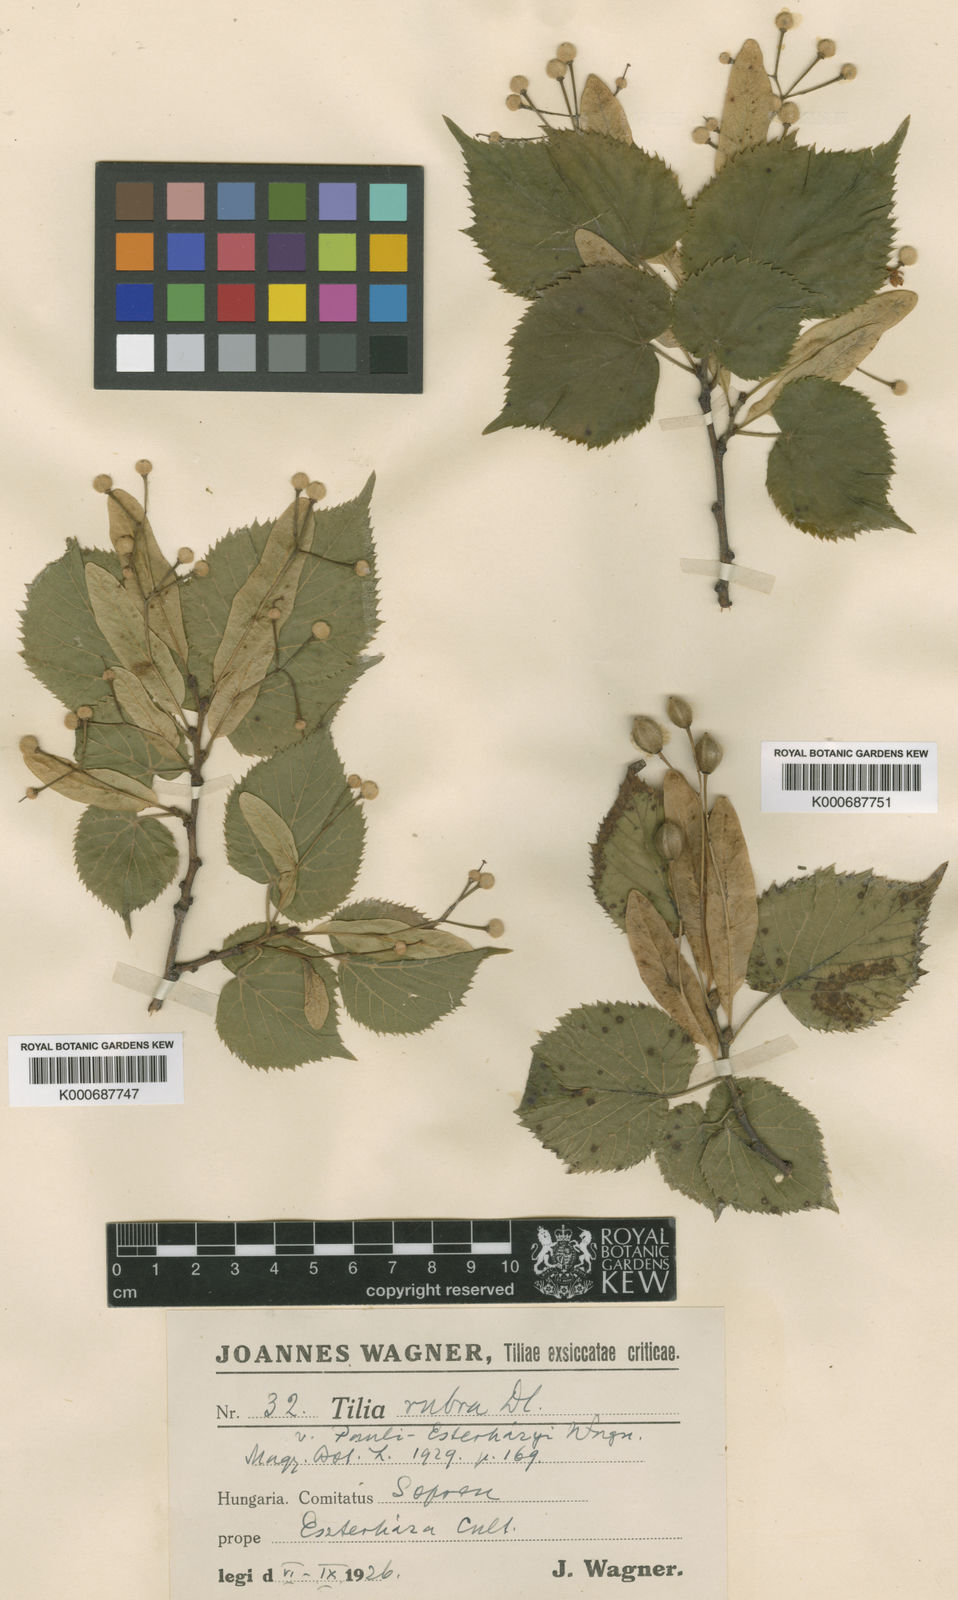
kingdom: Plantae
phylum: Tracheophyta
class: Magnoliopsida
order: Malvales
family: Malvaceae
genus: Tilia
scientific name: Tilia platyphyllos
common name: Large-leaved lime
